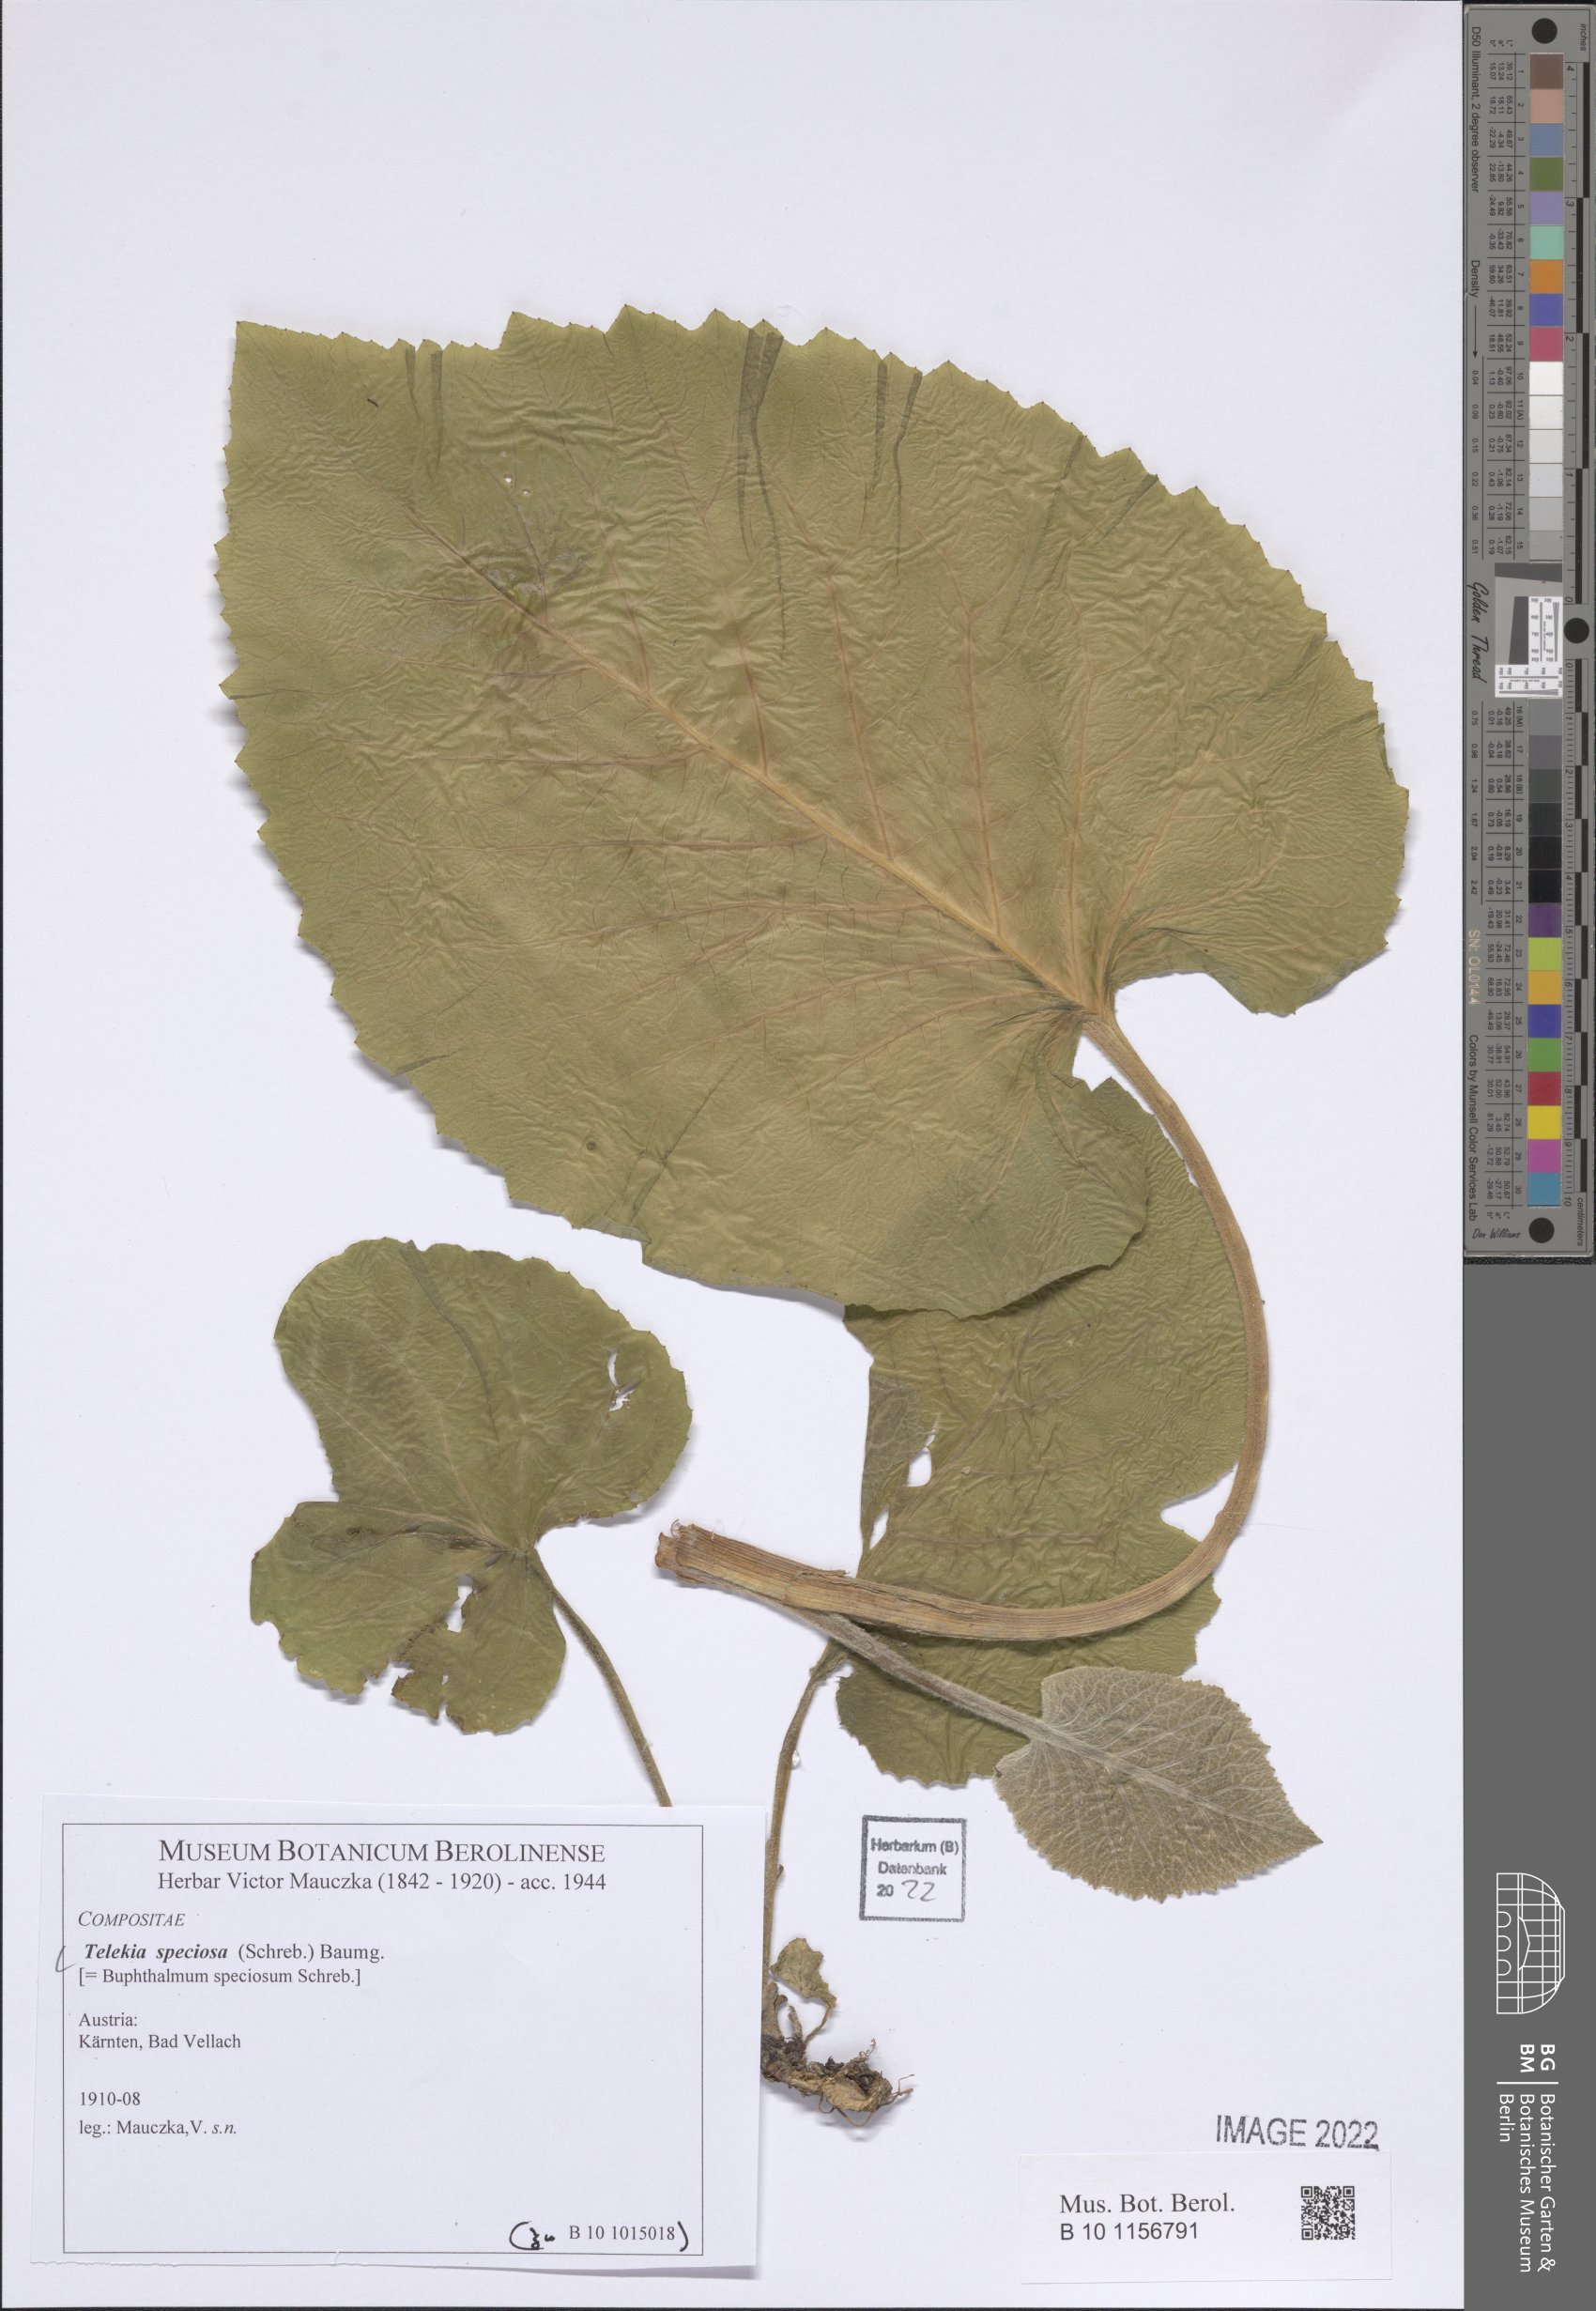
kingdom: Plantae
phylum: Tracheophyta
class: Magnoliopsida
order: Asterales
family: Asteraceae
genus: Telekia
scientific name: Telekia speciosa
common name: Yellow oxeye
